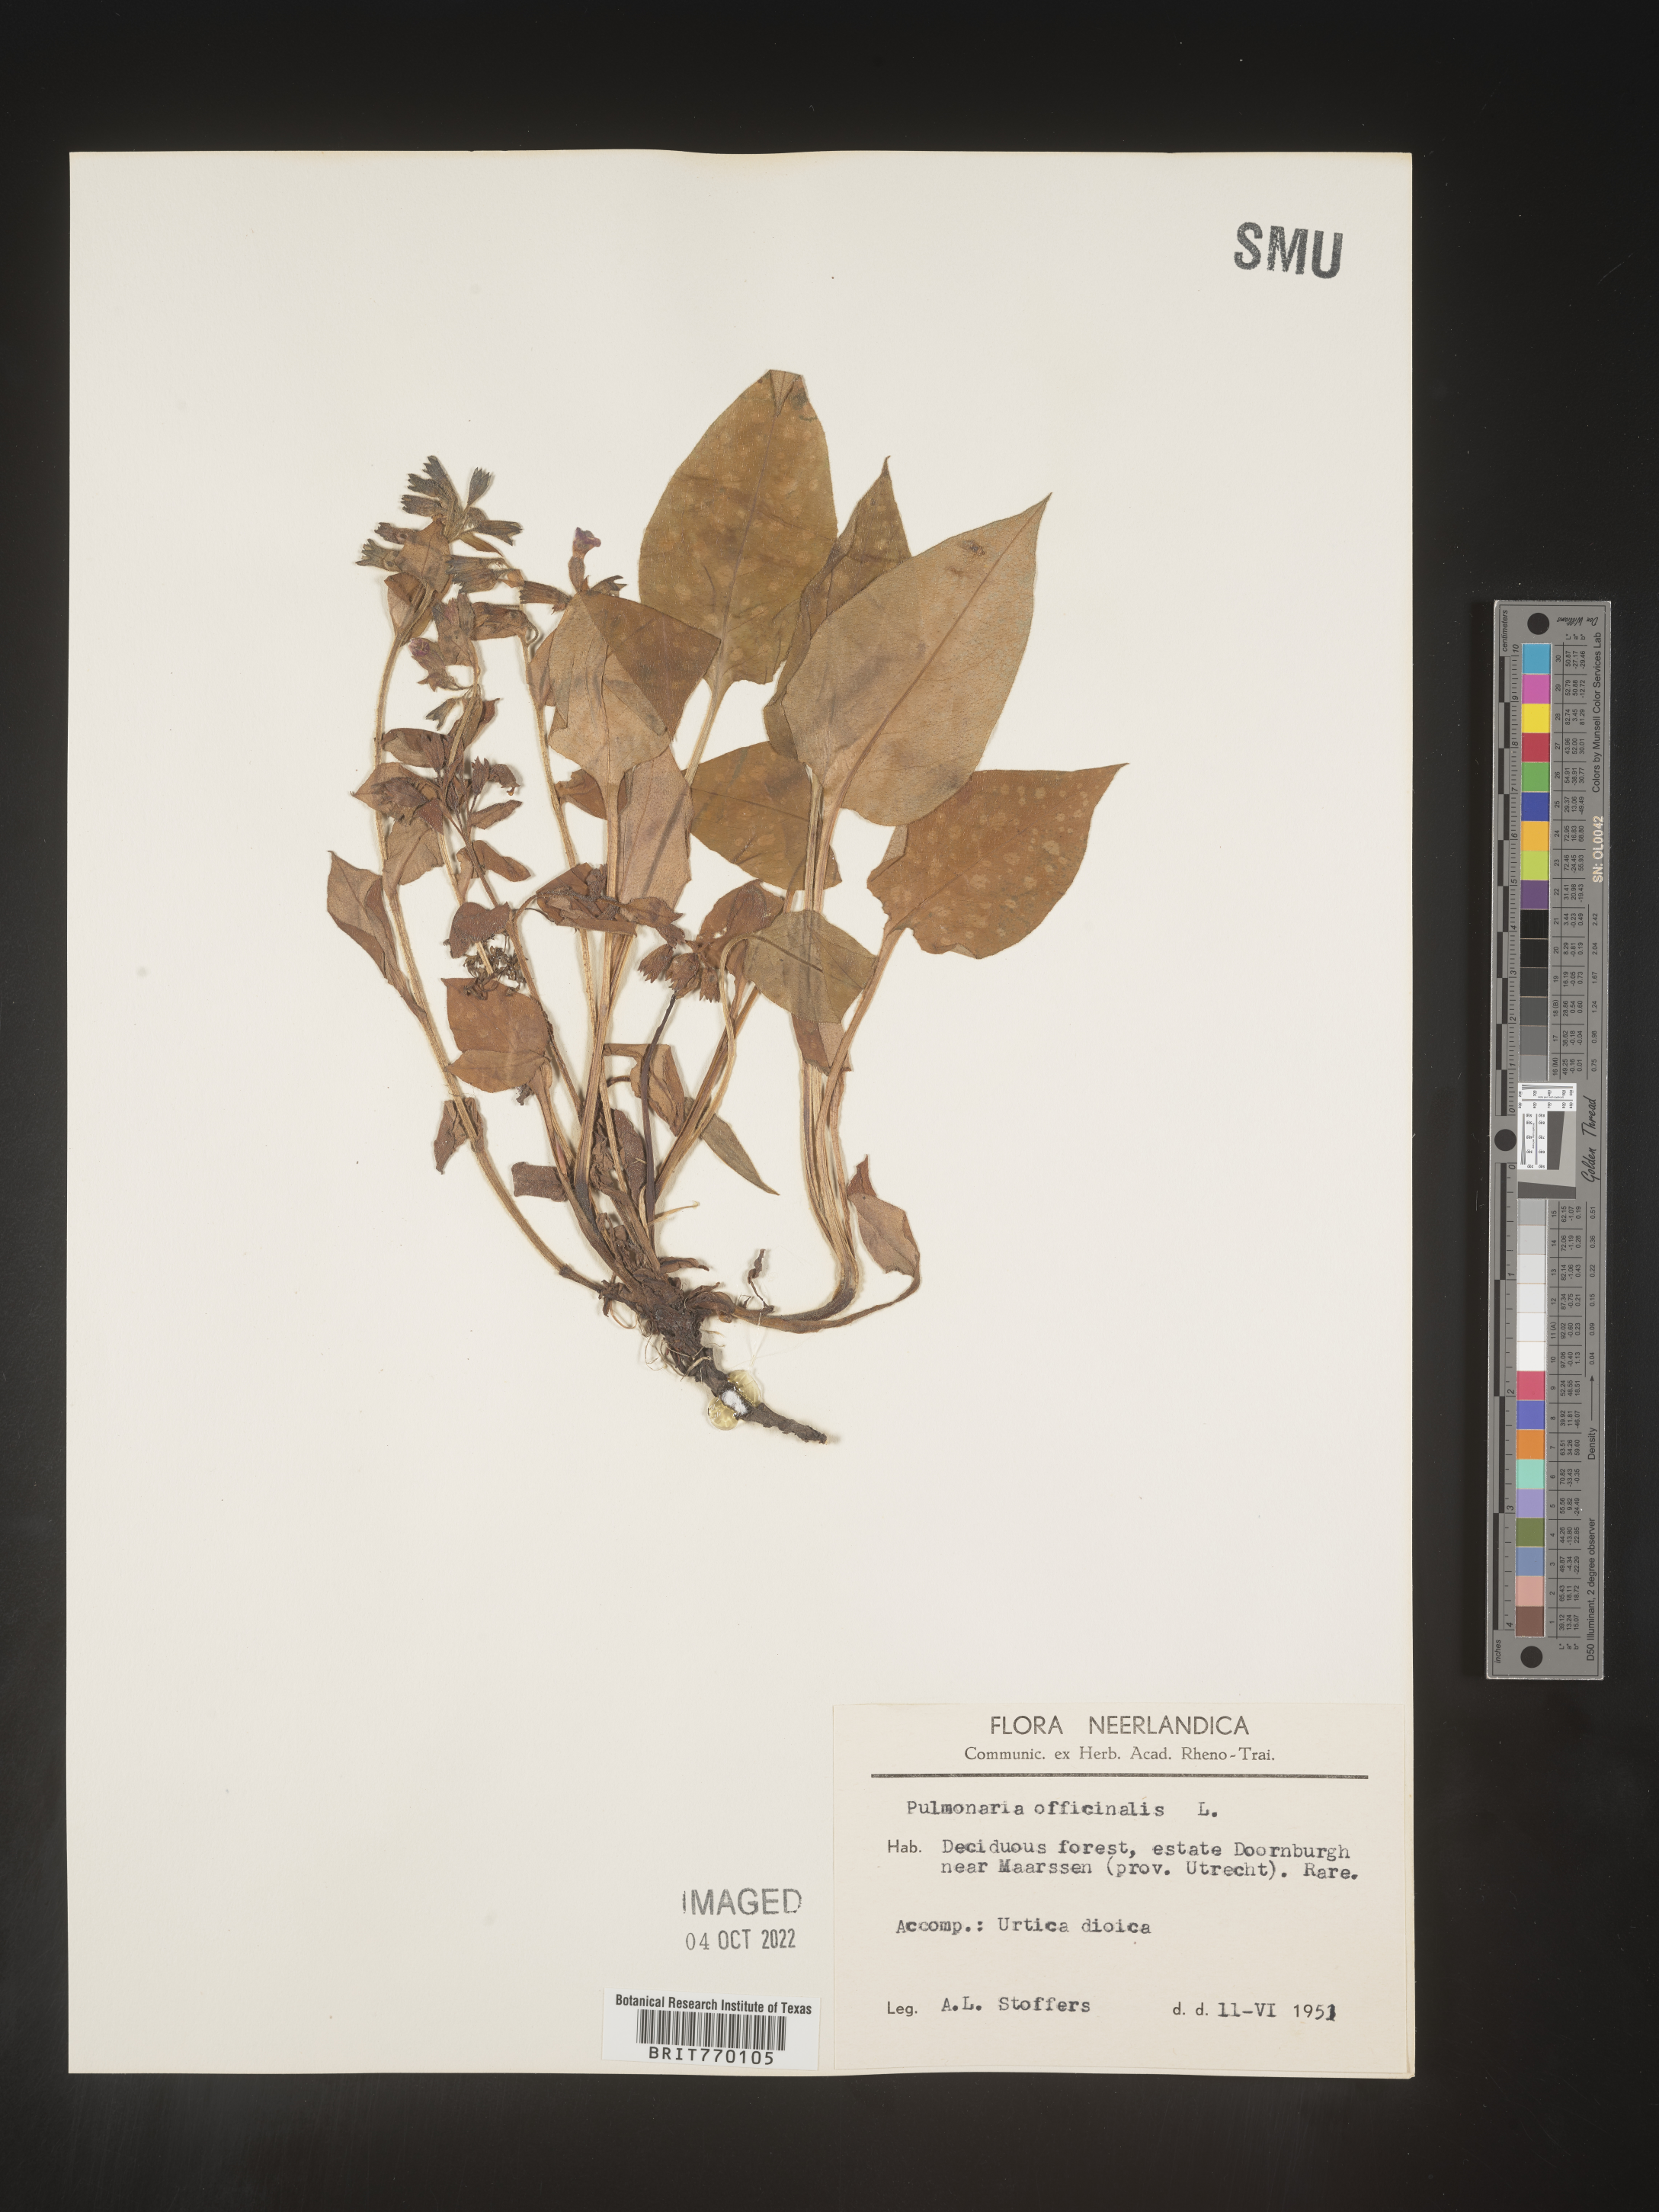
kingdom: Plantae
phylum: Tracheophyta
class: Magnoliopsida
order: Boraginales
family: Boraginaceae
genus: Pulmonaria
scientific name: Pulmonaria
